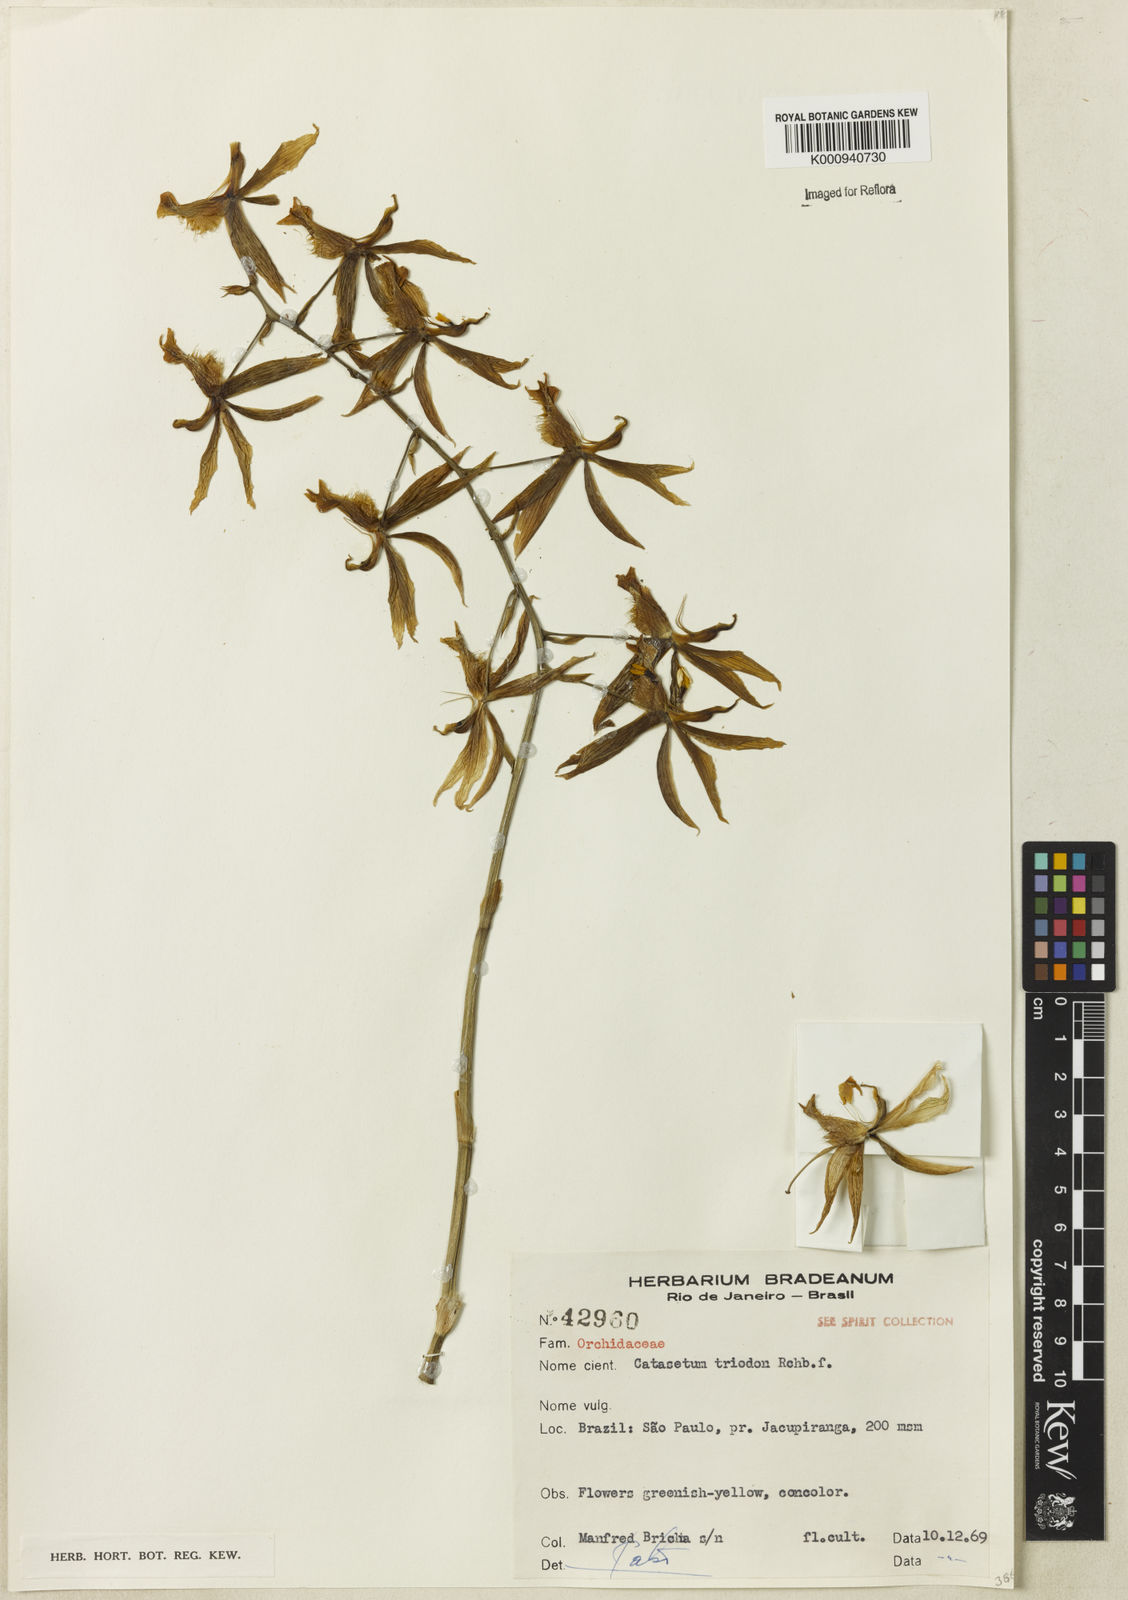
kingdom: Plantae
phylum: Tracheophyta
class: Liliopsida
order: Asparagales
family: Orchidaceae
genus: Catasetum
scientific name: Catasetum triodon
